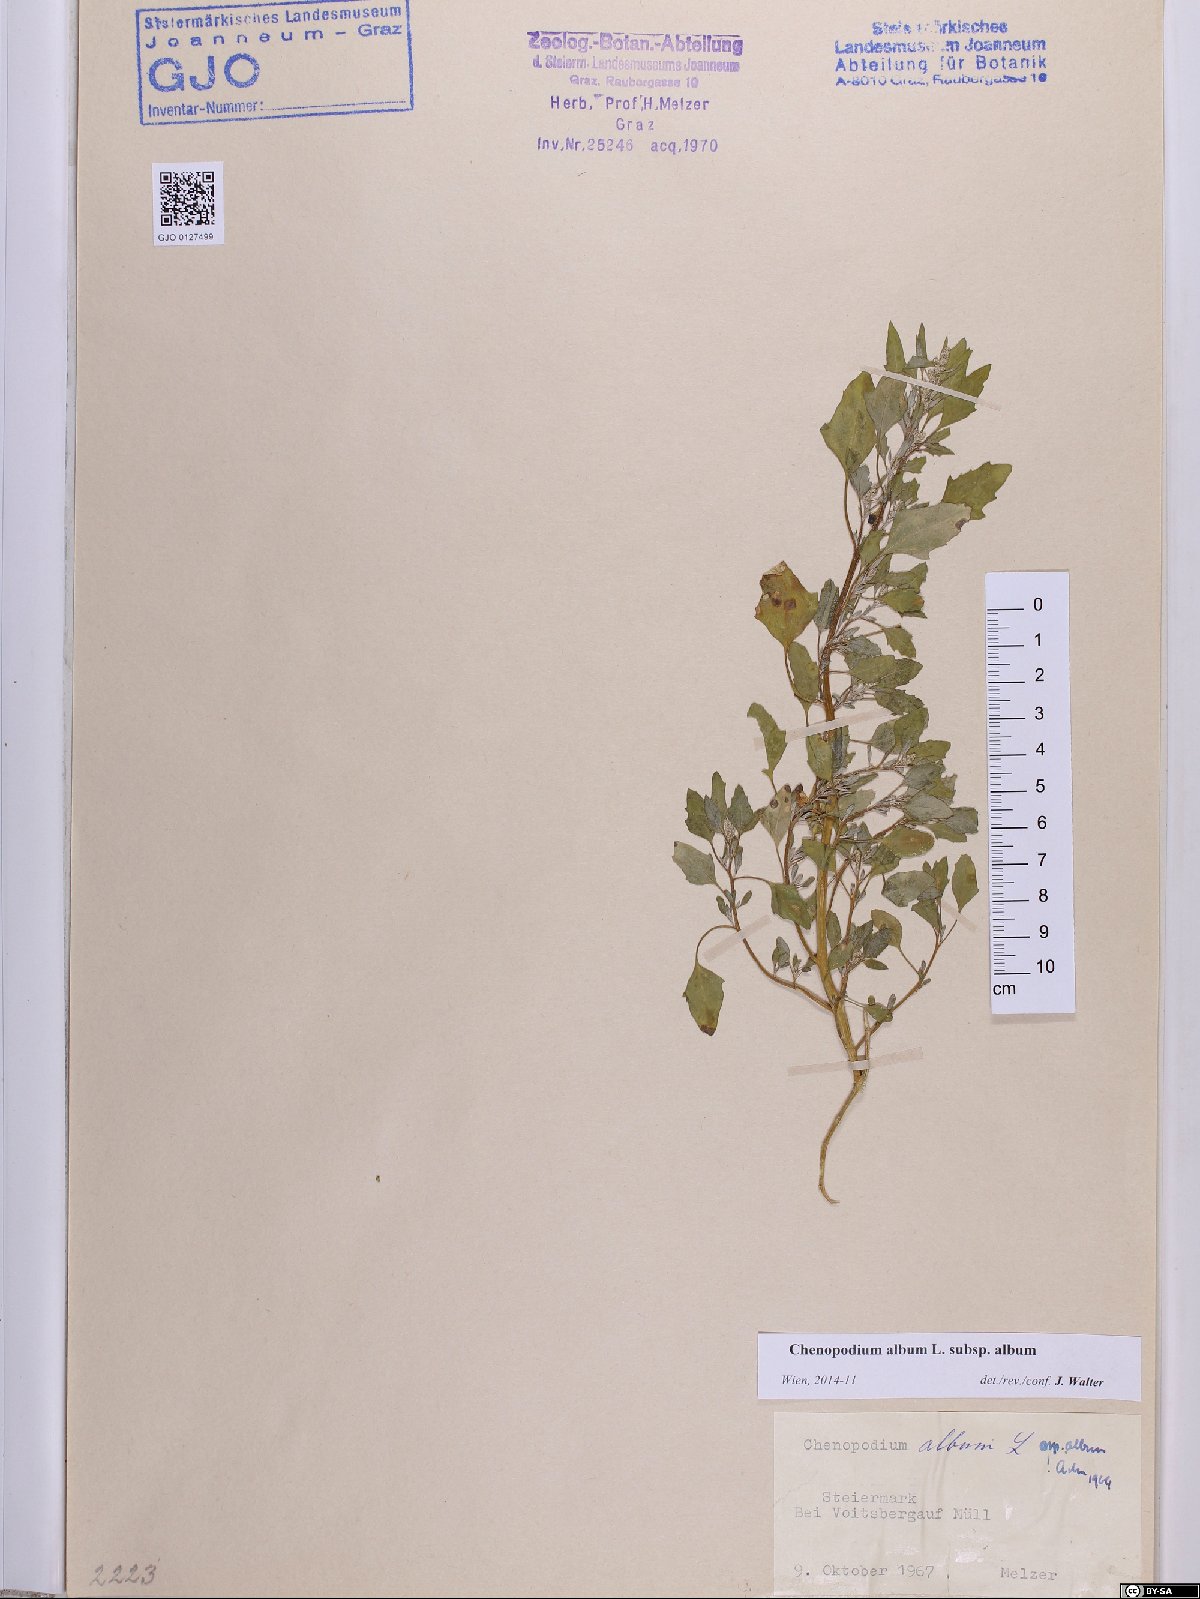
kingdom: Plantae
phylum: Tracheophyta
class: Magnoliopsida
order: Caryophyllales
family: Amaranthaceae
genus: Chenopodium
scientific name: Chenopodium album
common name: Fat-hen
